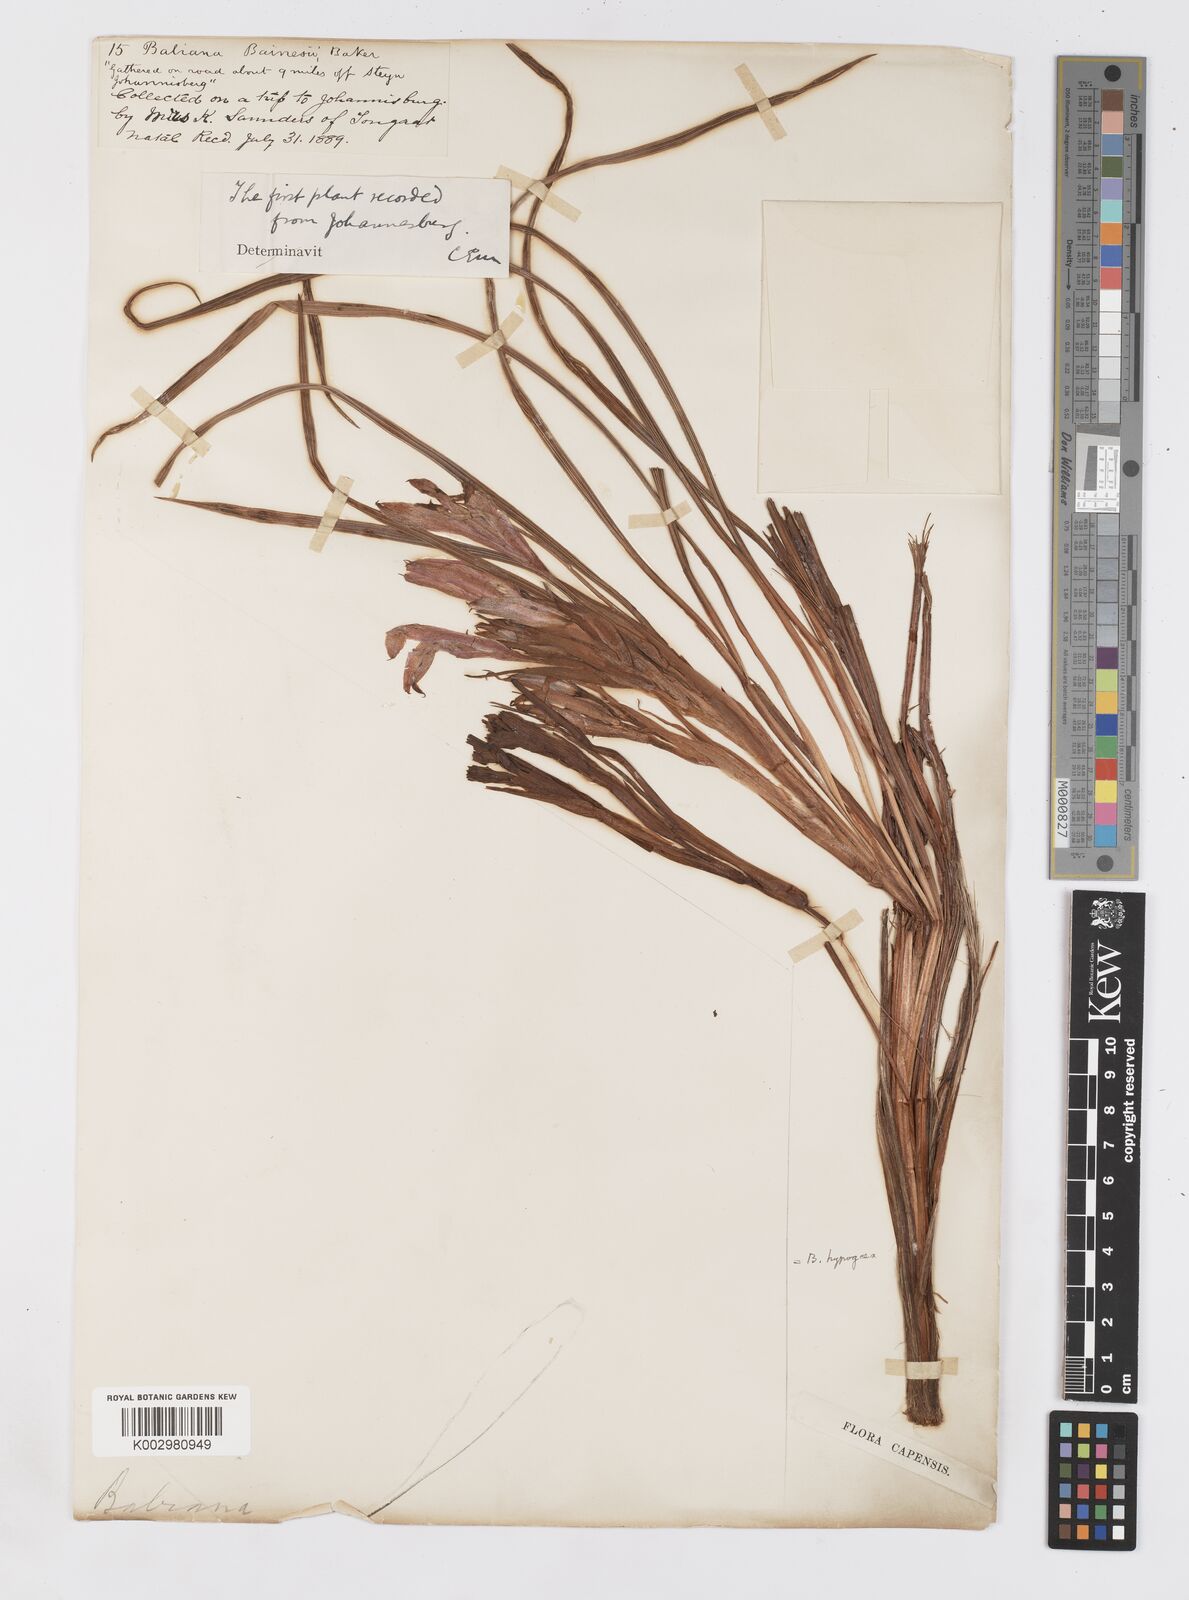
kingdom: Plantae
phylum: Tracheophyta
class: Liliopsida
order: Asparagales
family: Iridaceae
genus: Babiana
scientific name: Babiana bainesii
